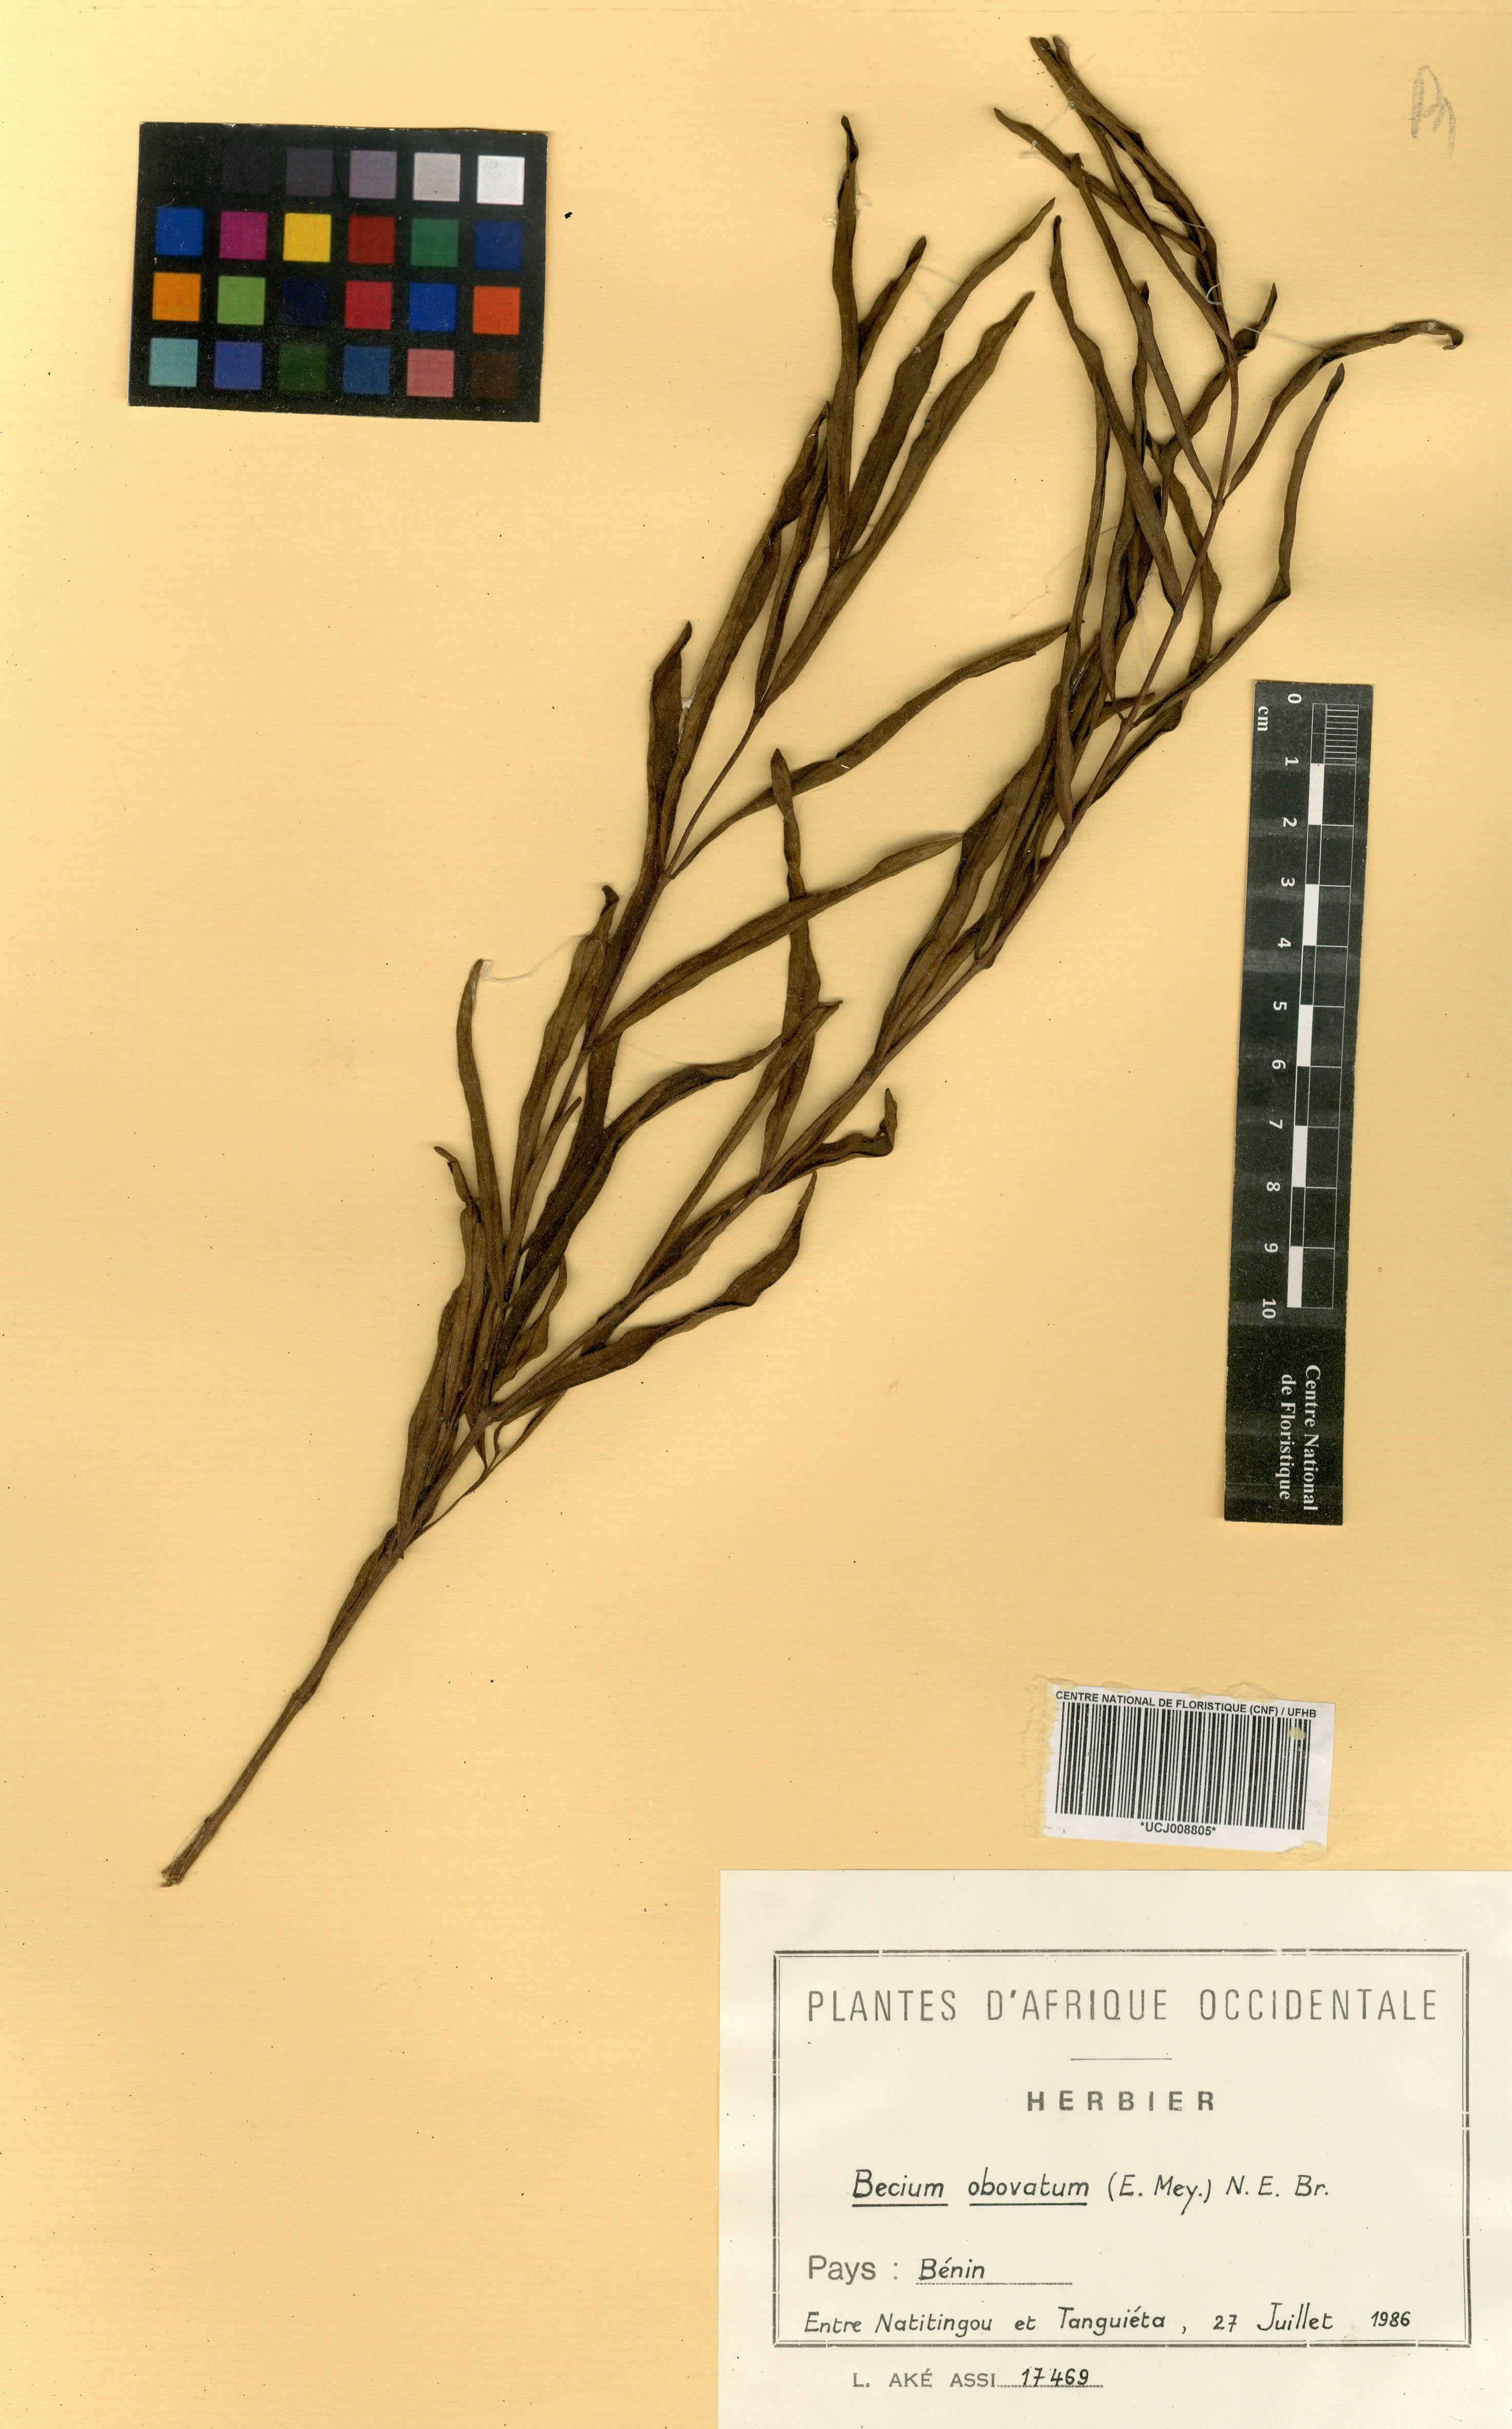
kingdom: Plantae
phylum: Tracheophyta
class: Magnoliopsida
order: Lamiales
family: Lamiaceae
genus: Ocimum
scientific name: Ocimum obovatum
